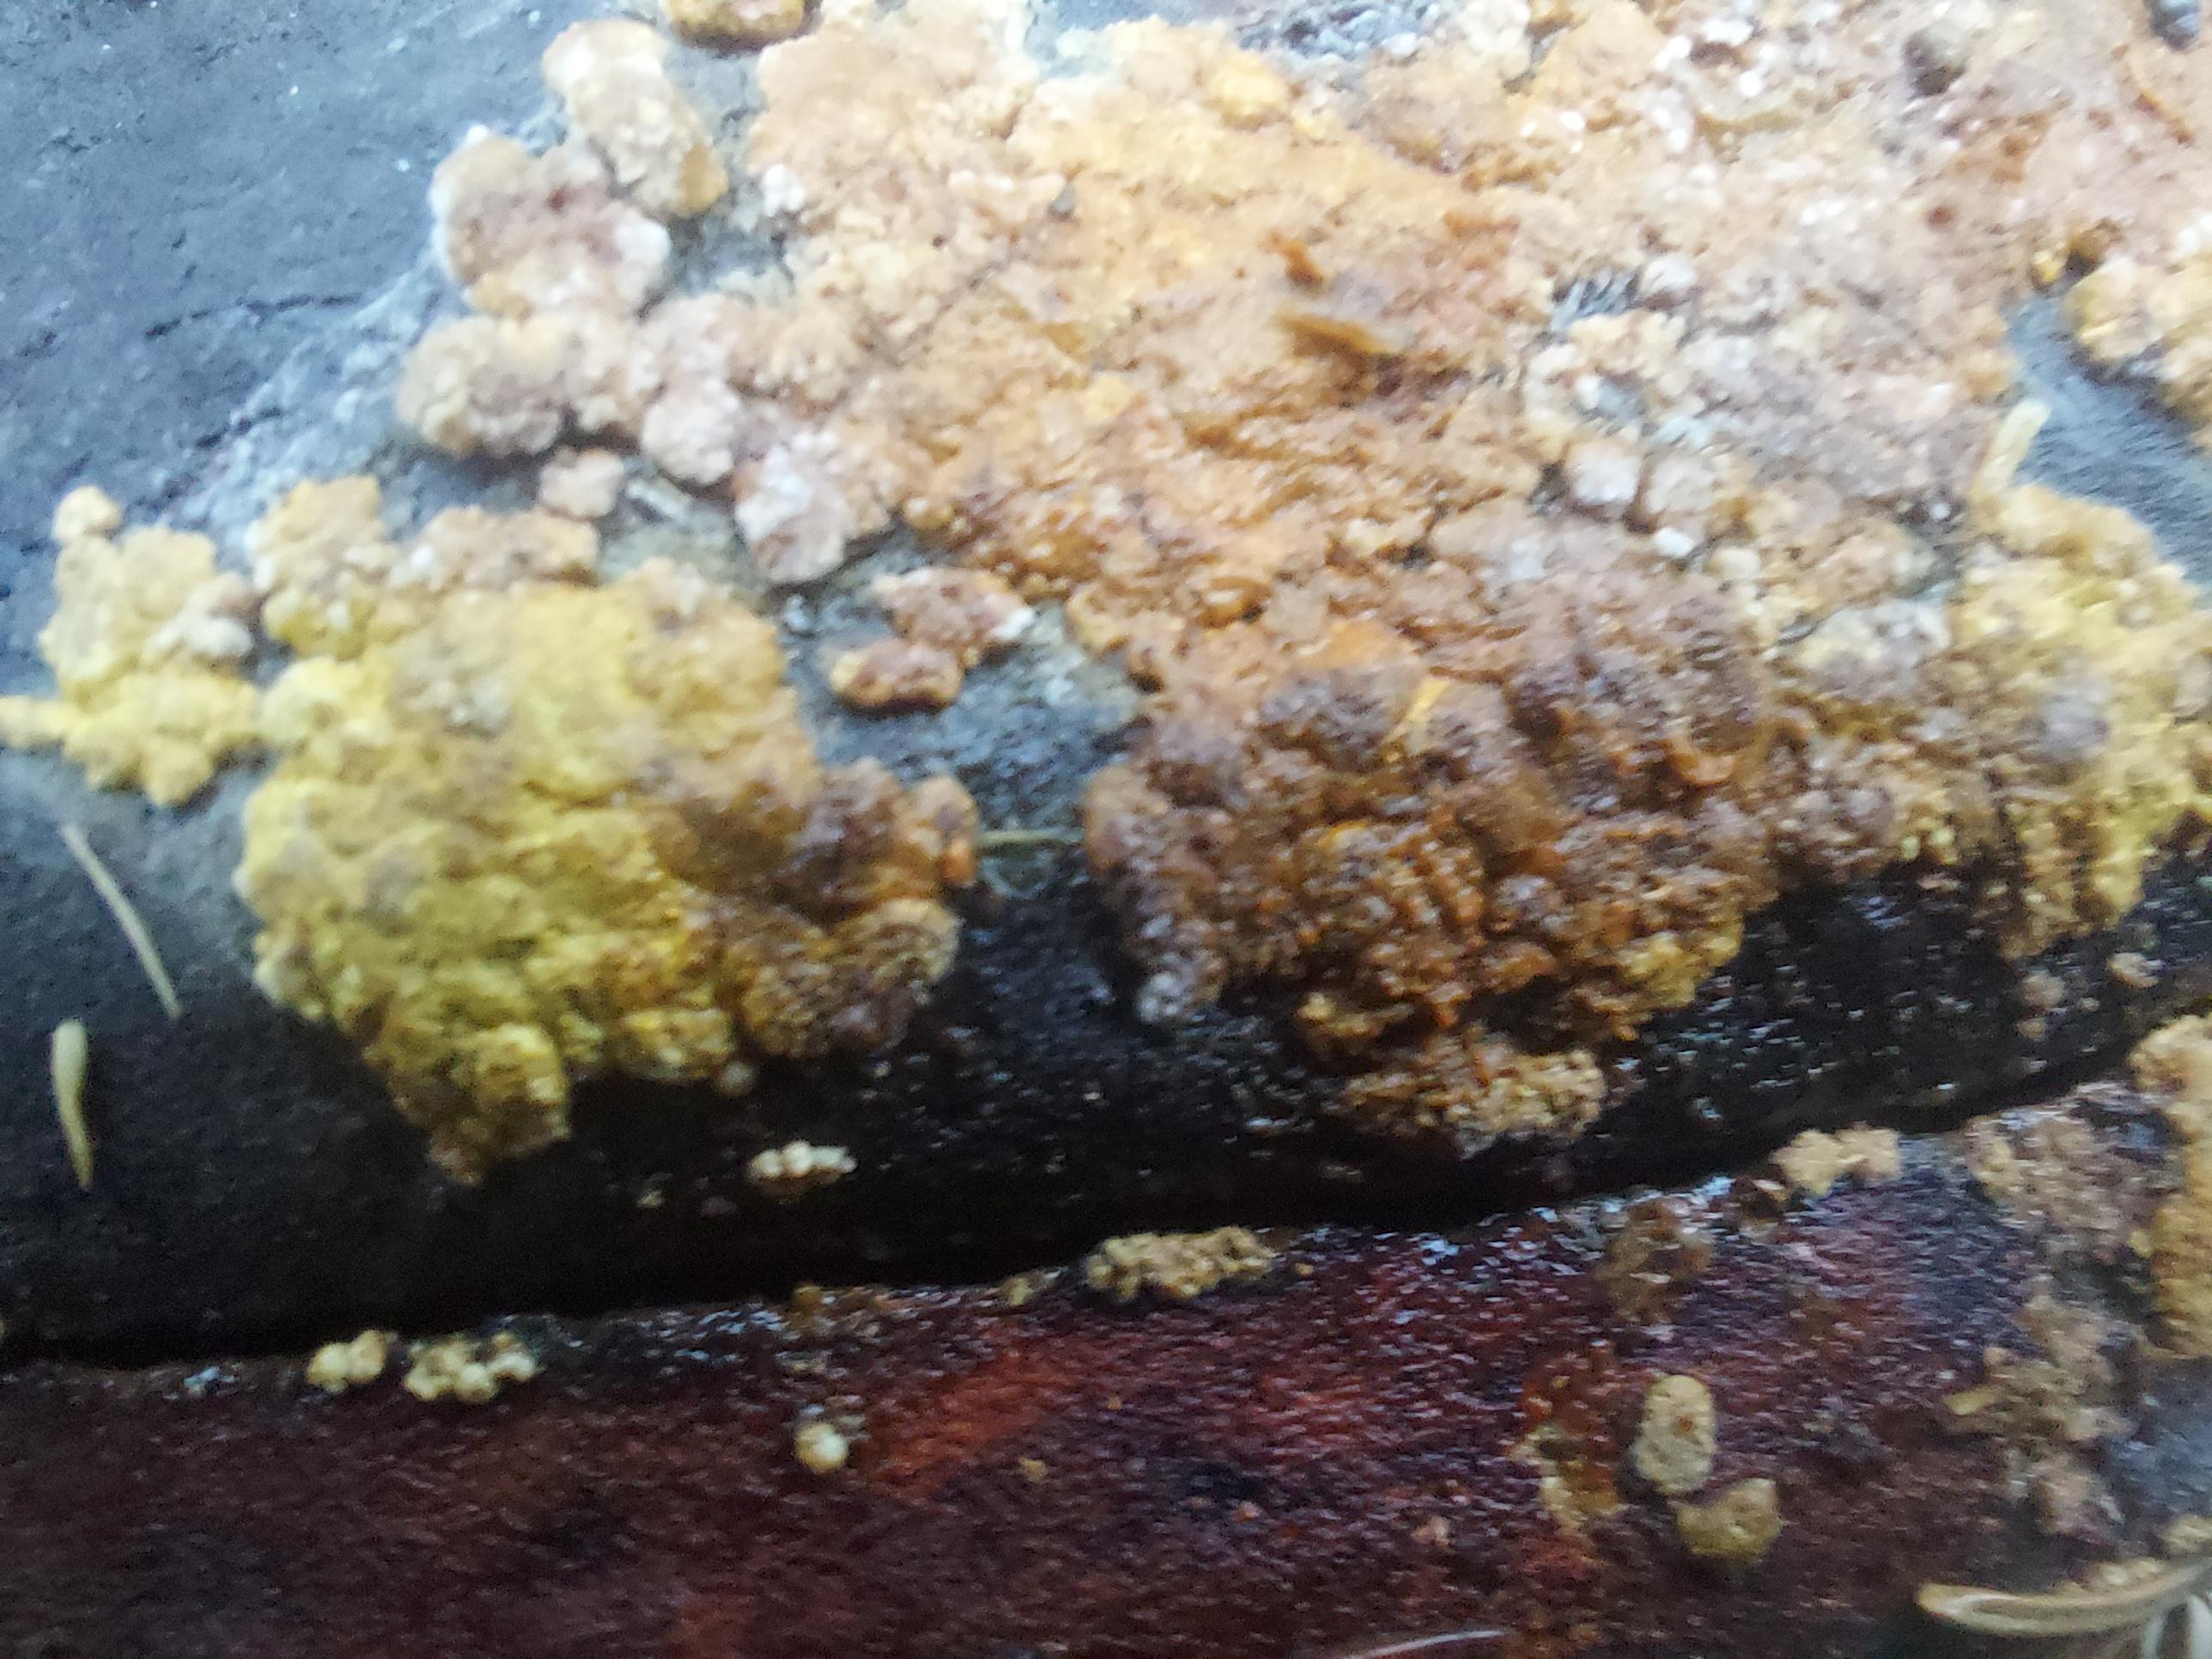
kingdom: Fungi
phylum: Ascomycota
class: Sordariomycetes
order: Hypocreales
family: Hypocreaceae
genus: Trichoderma
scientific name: Trichoderma pulvinatum
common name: snyltende kødkerne
